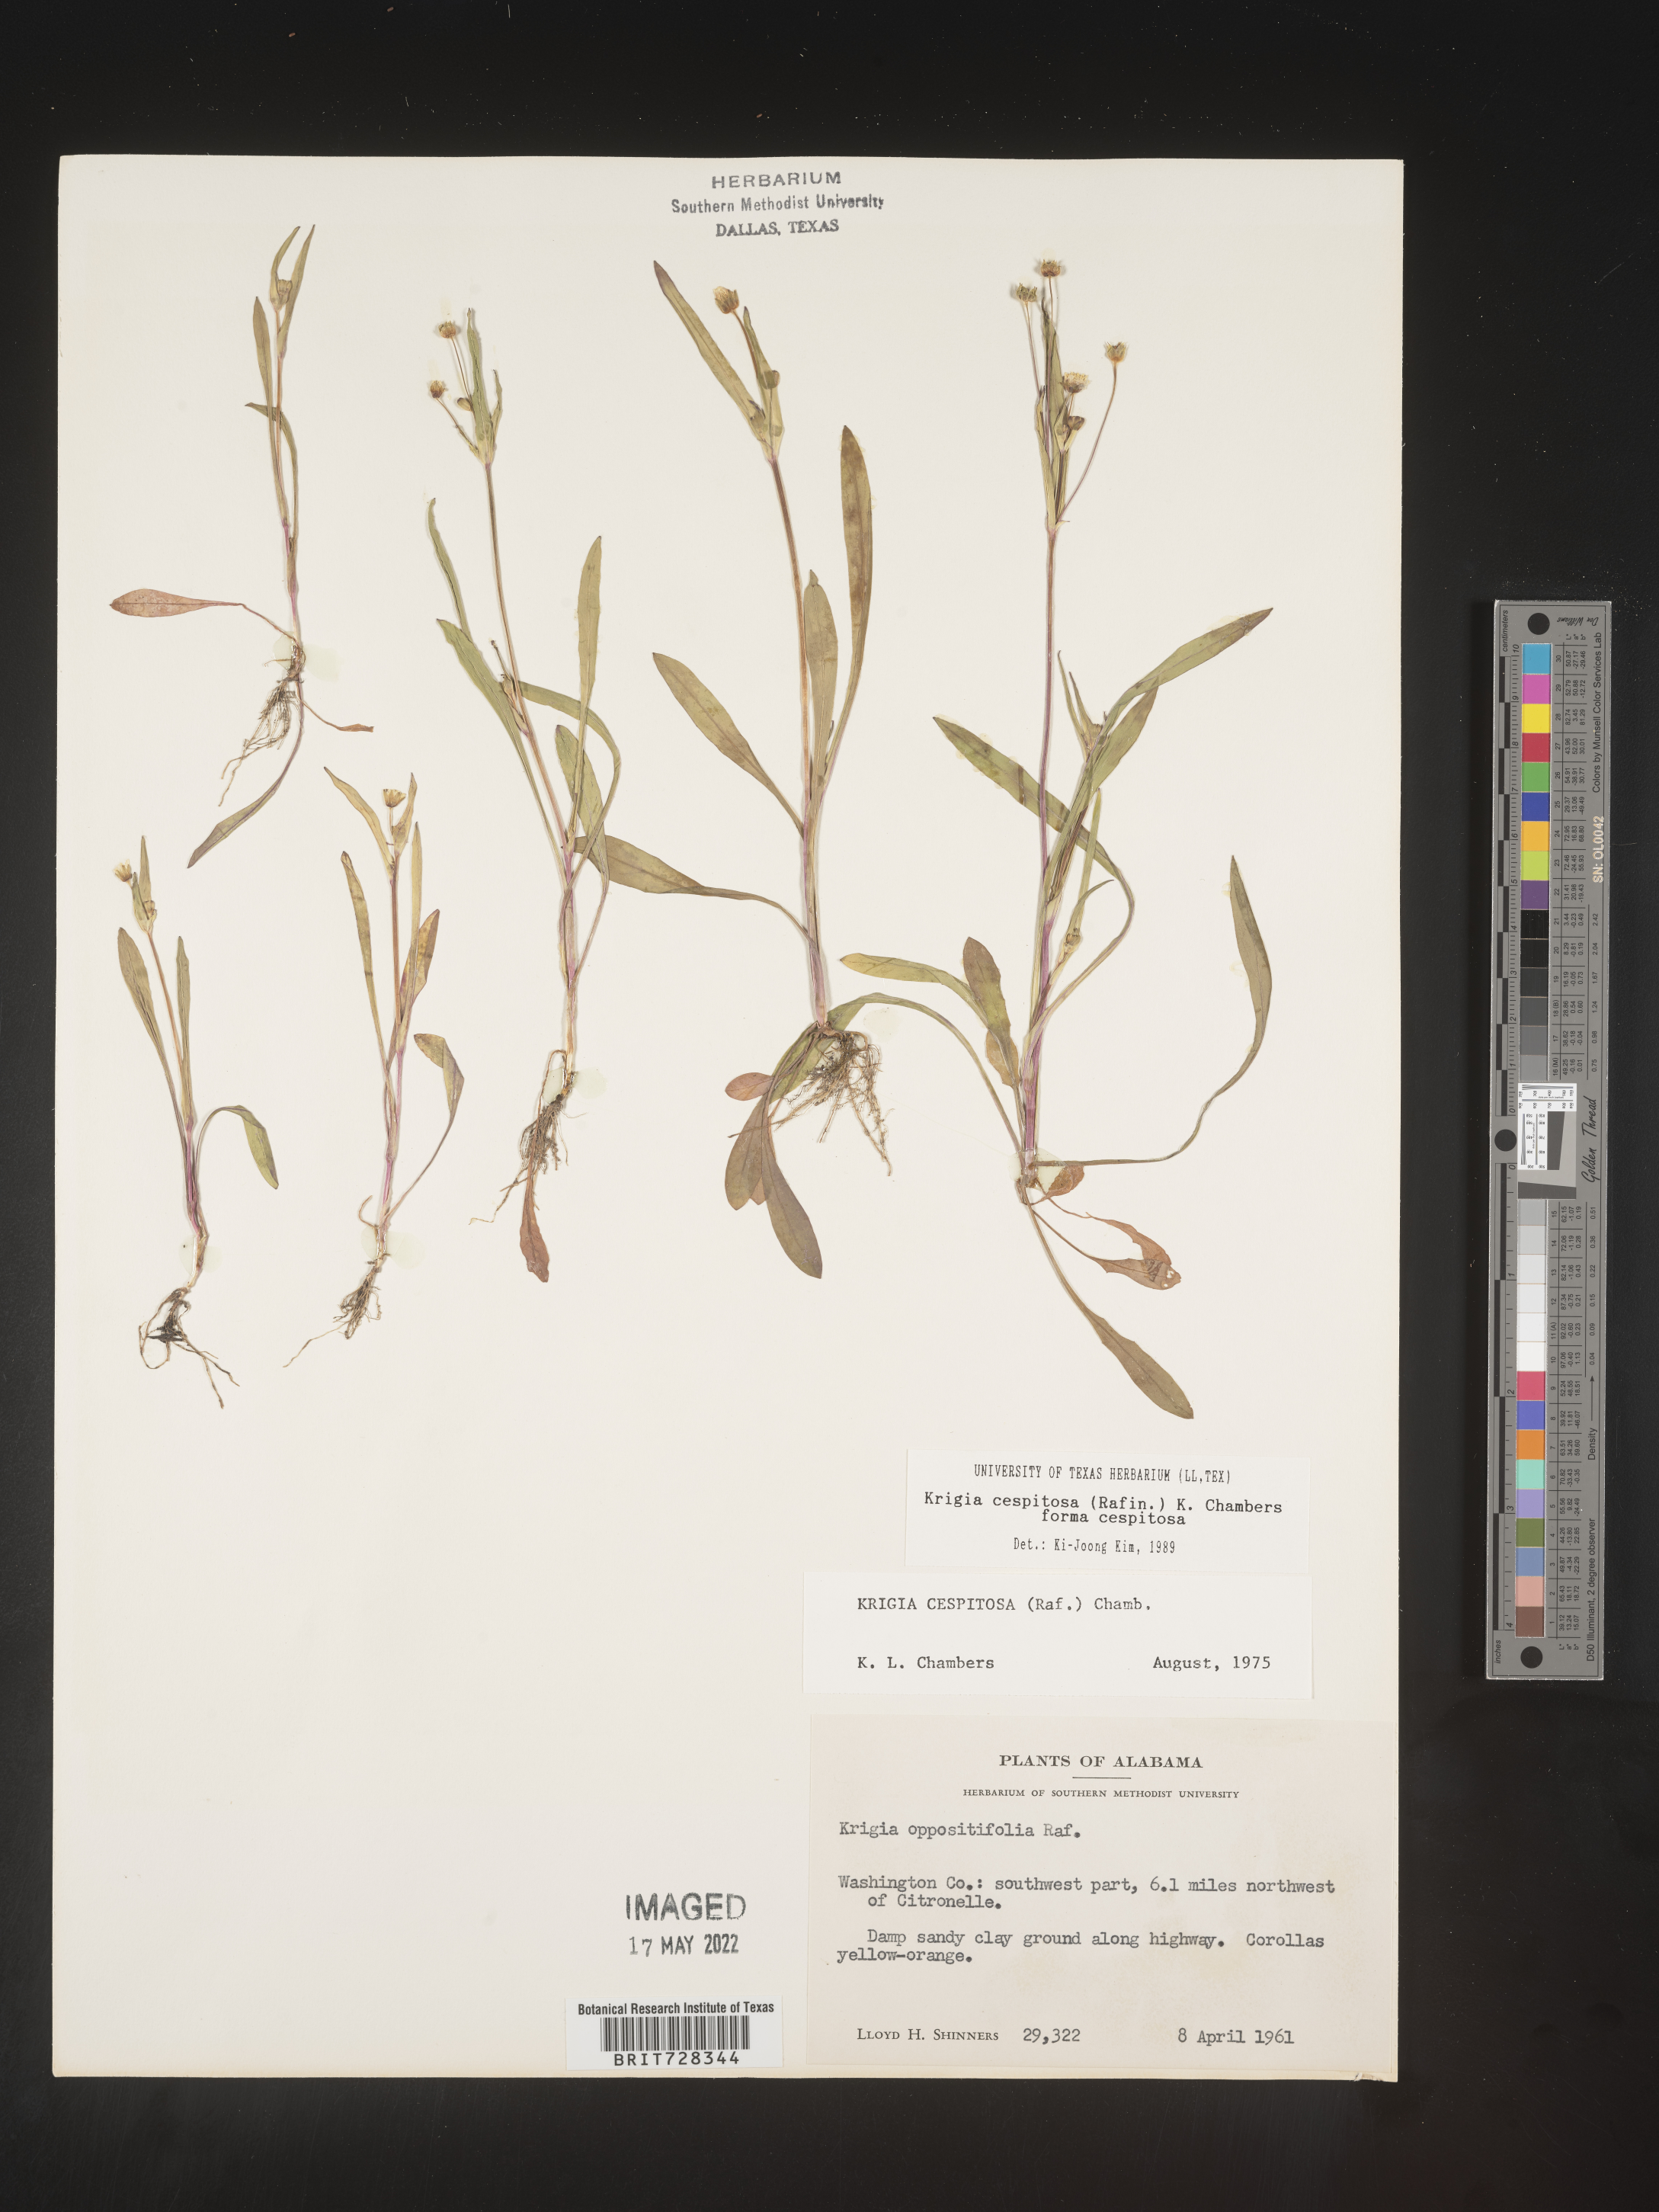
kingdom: Plantae
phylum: Tracheophyta
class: Magnoliopsida
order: Asterales
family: Asteraceae
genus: Krigia
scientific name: Krigia caespitosa
